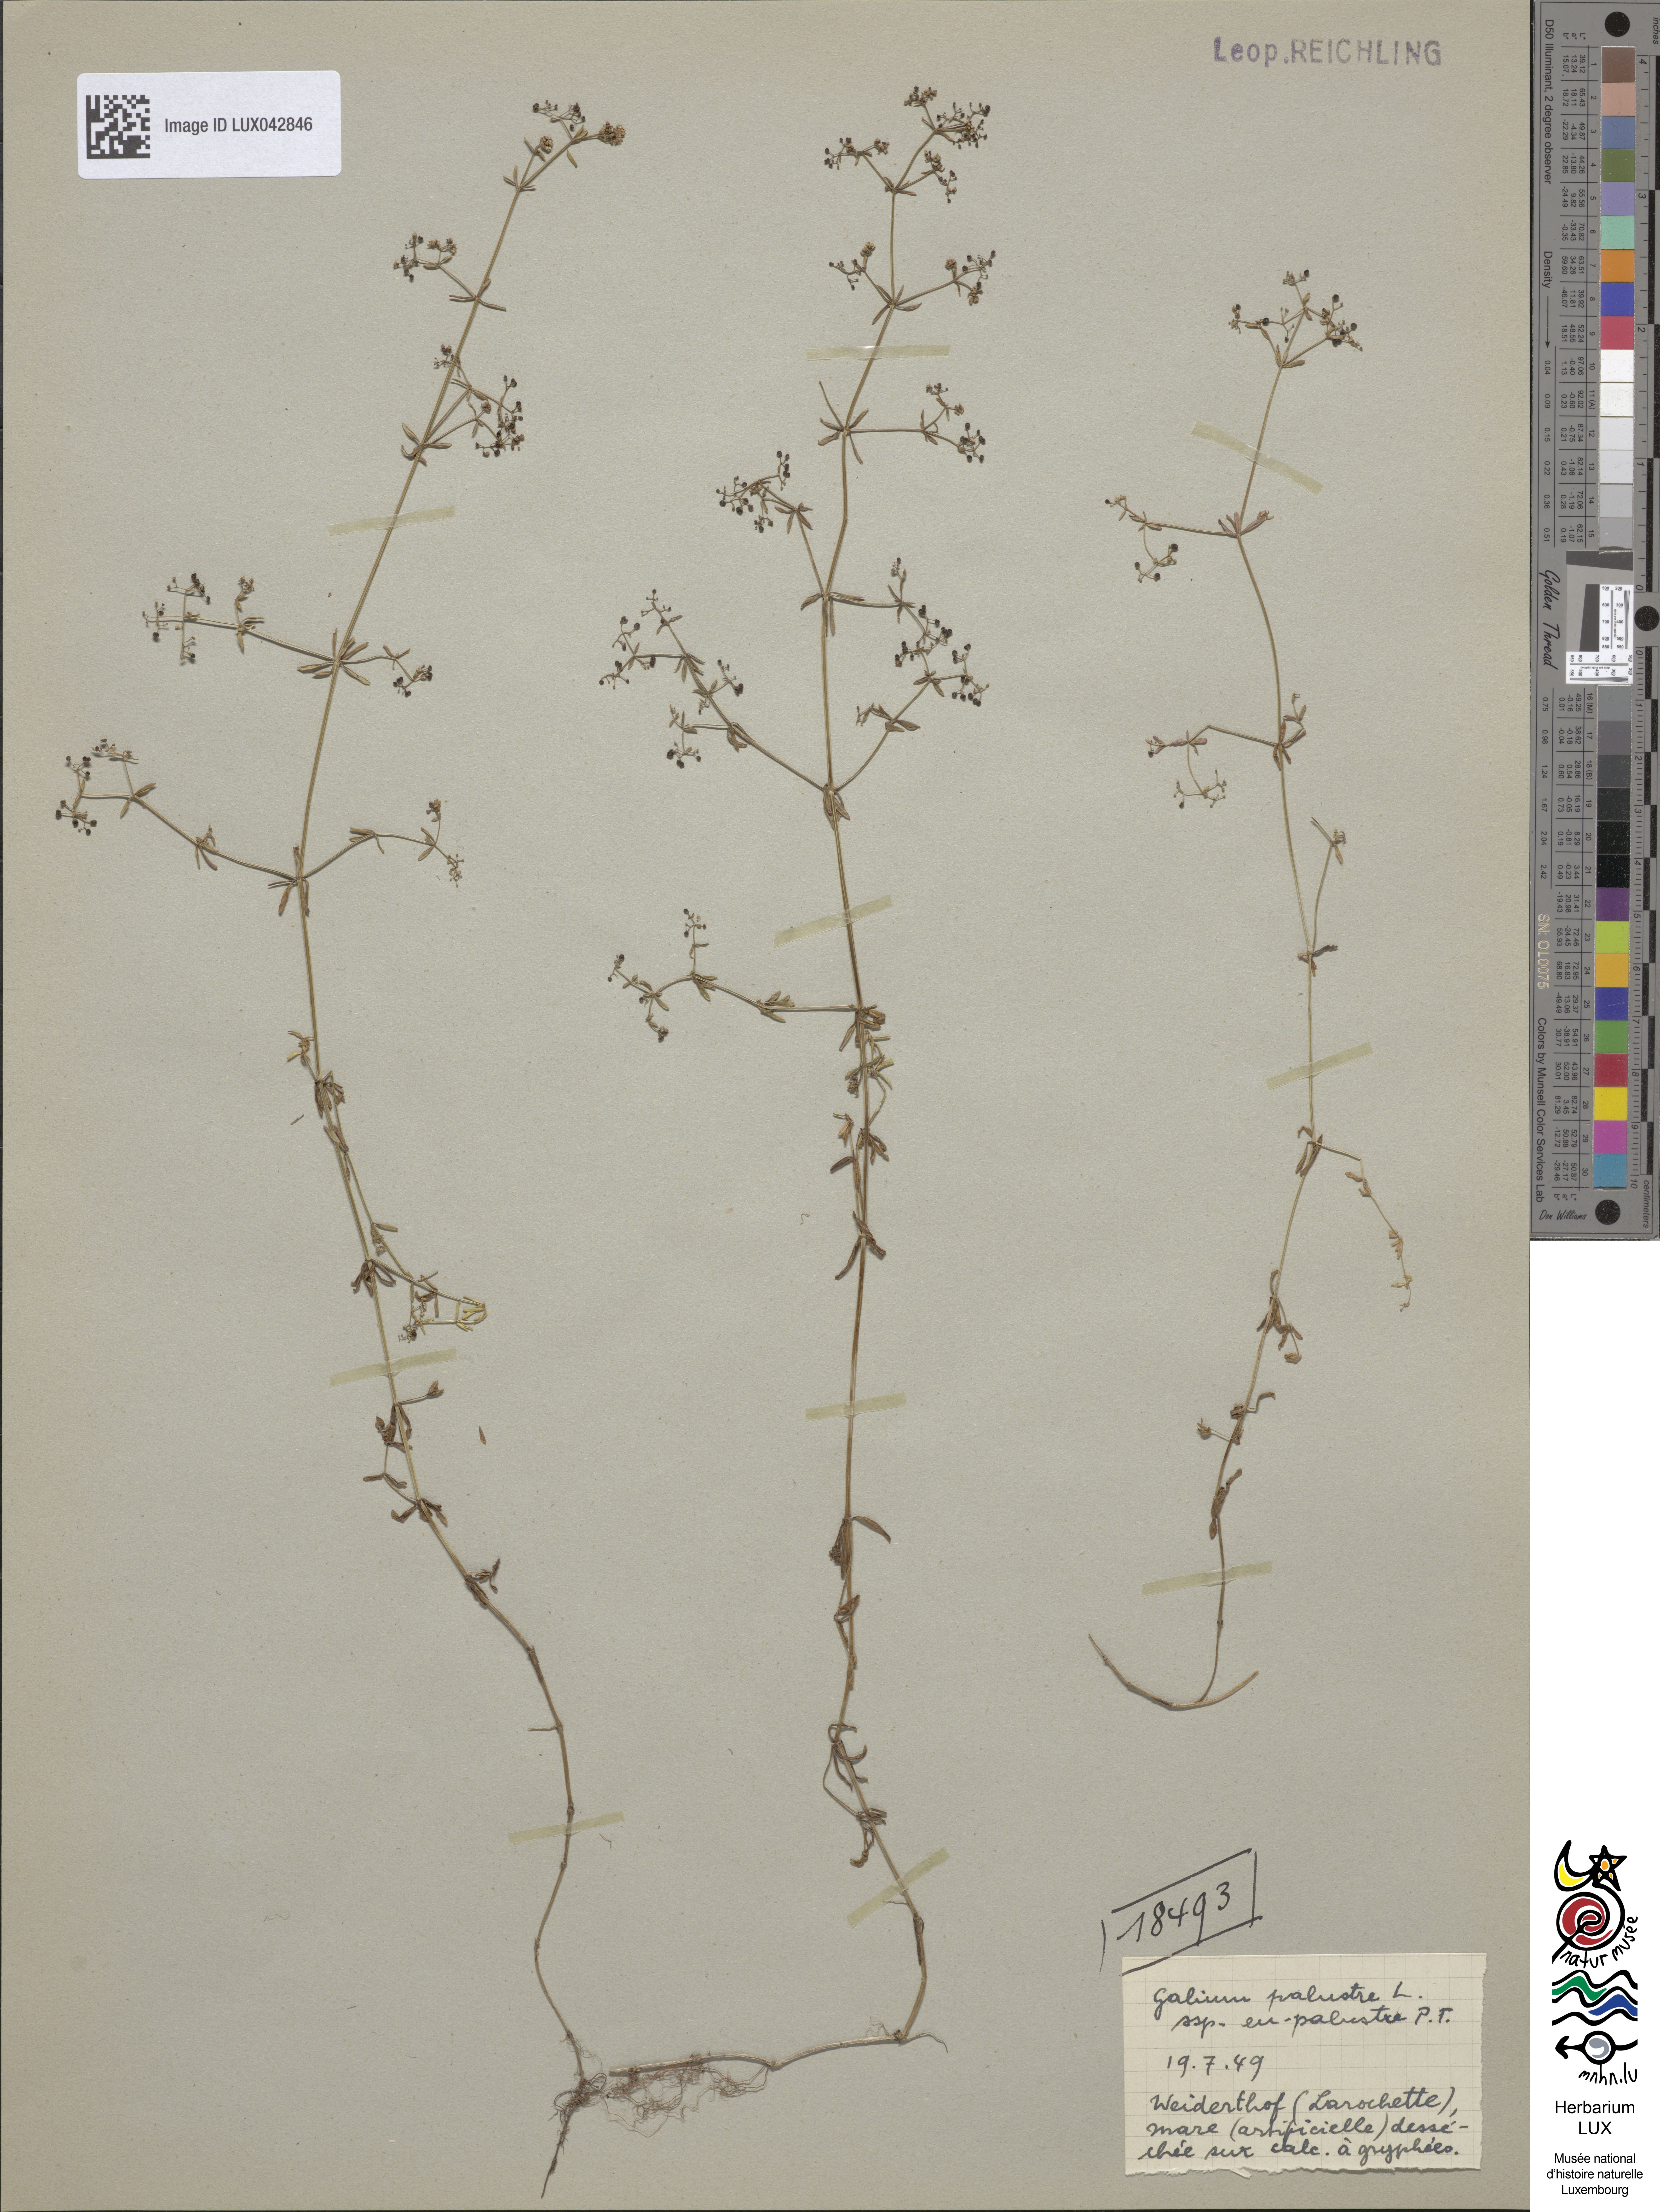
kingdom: Plantae
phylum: Tracheophyta
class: Magnoliopsida
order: Gentianales
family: Rubiaceae
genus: Galium
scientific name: Galium palustre
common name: Common marsh-bedstraw
